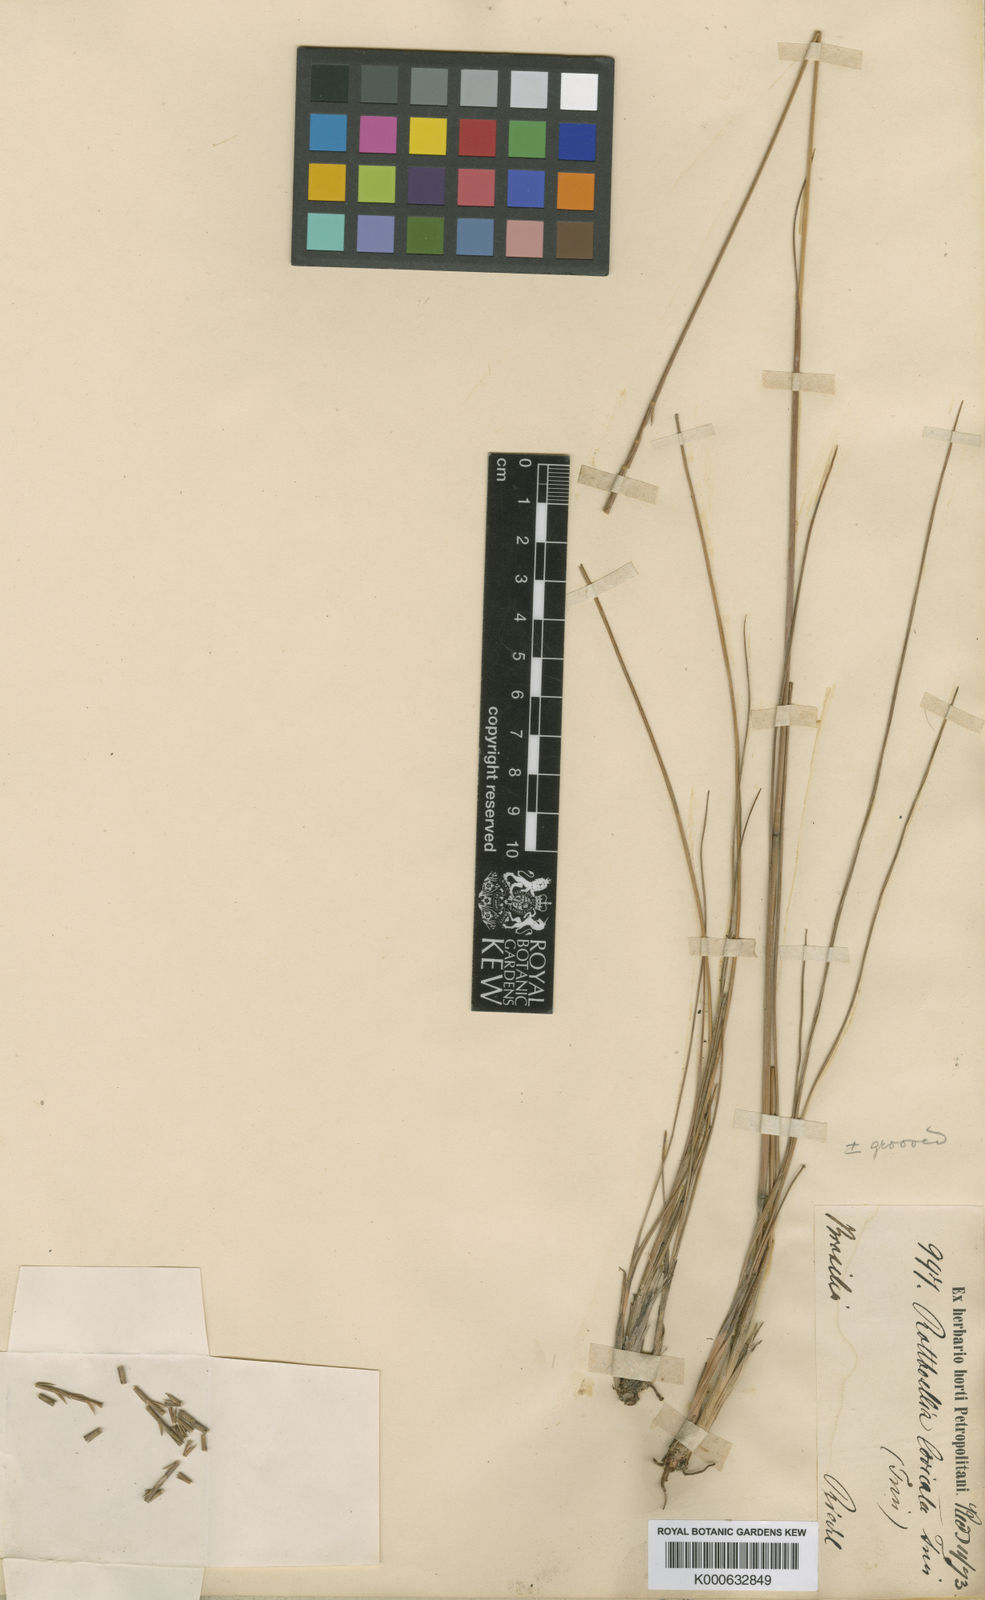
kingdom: Plantae
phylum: Tracheophyta
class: Liliopsida
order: Poales
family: Poaceae
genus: Rhytachne
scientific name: Rhytachne subgibbosa
